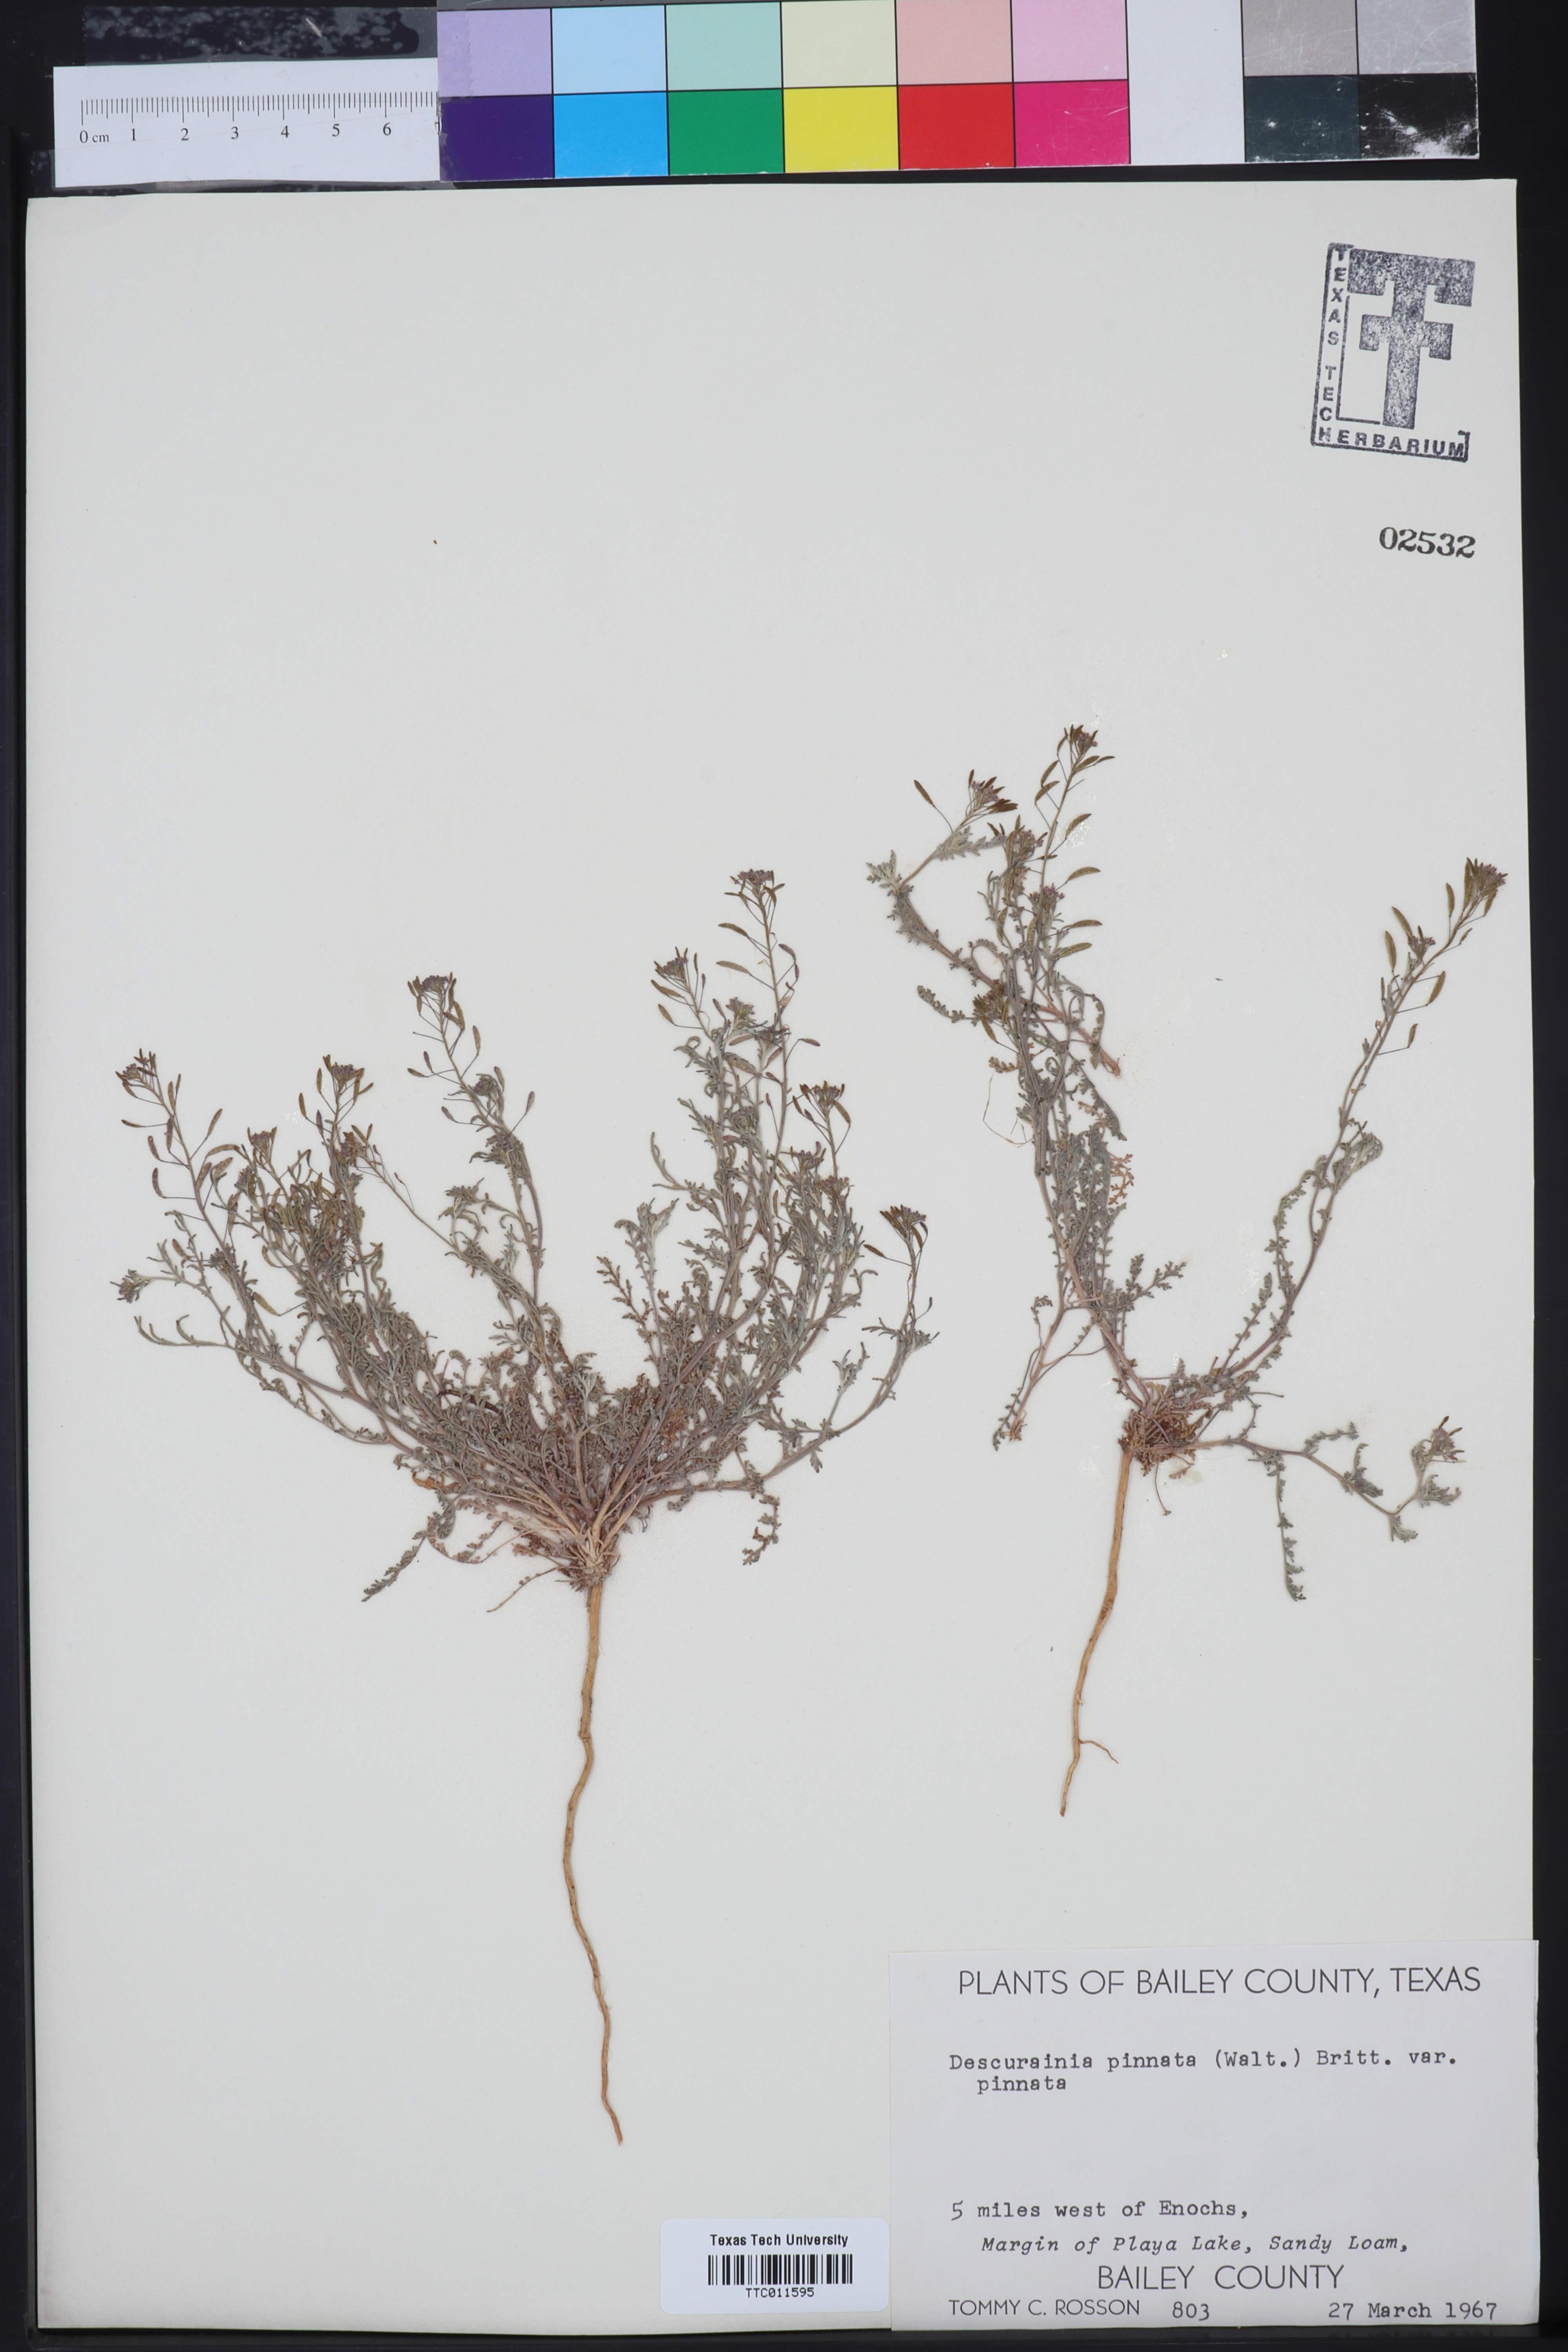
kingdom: Plantae
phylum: Tracheophyta
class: Magnoliopsida
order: Brassicales
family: Brassicaceae
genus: Descurainia
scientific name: Descurainia pinnata
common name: Western tansy mustard
